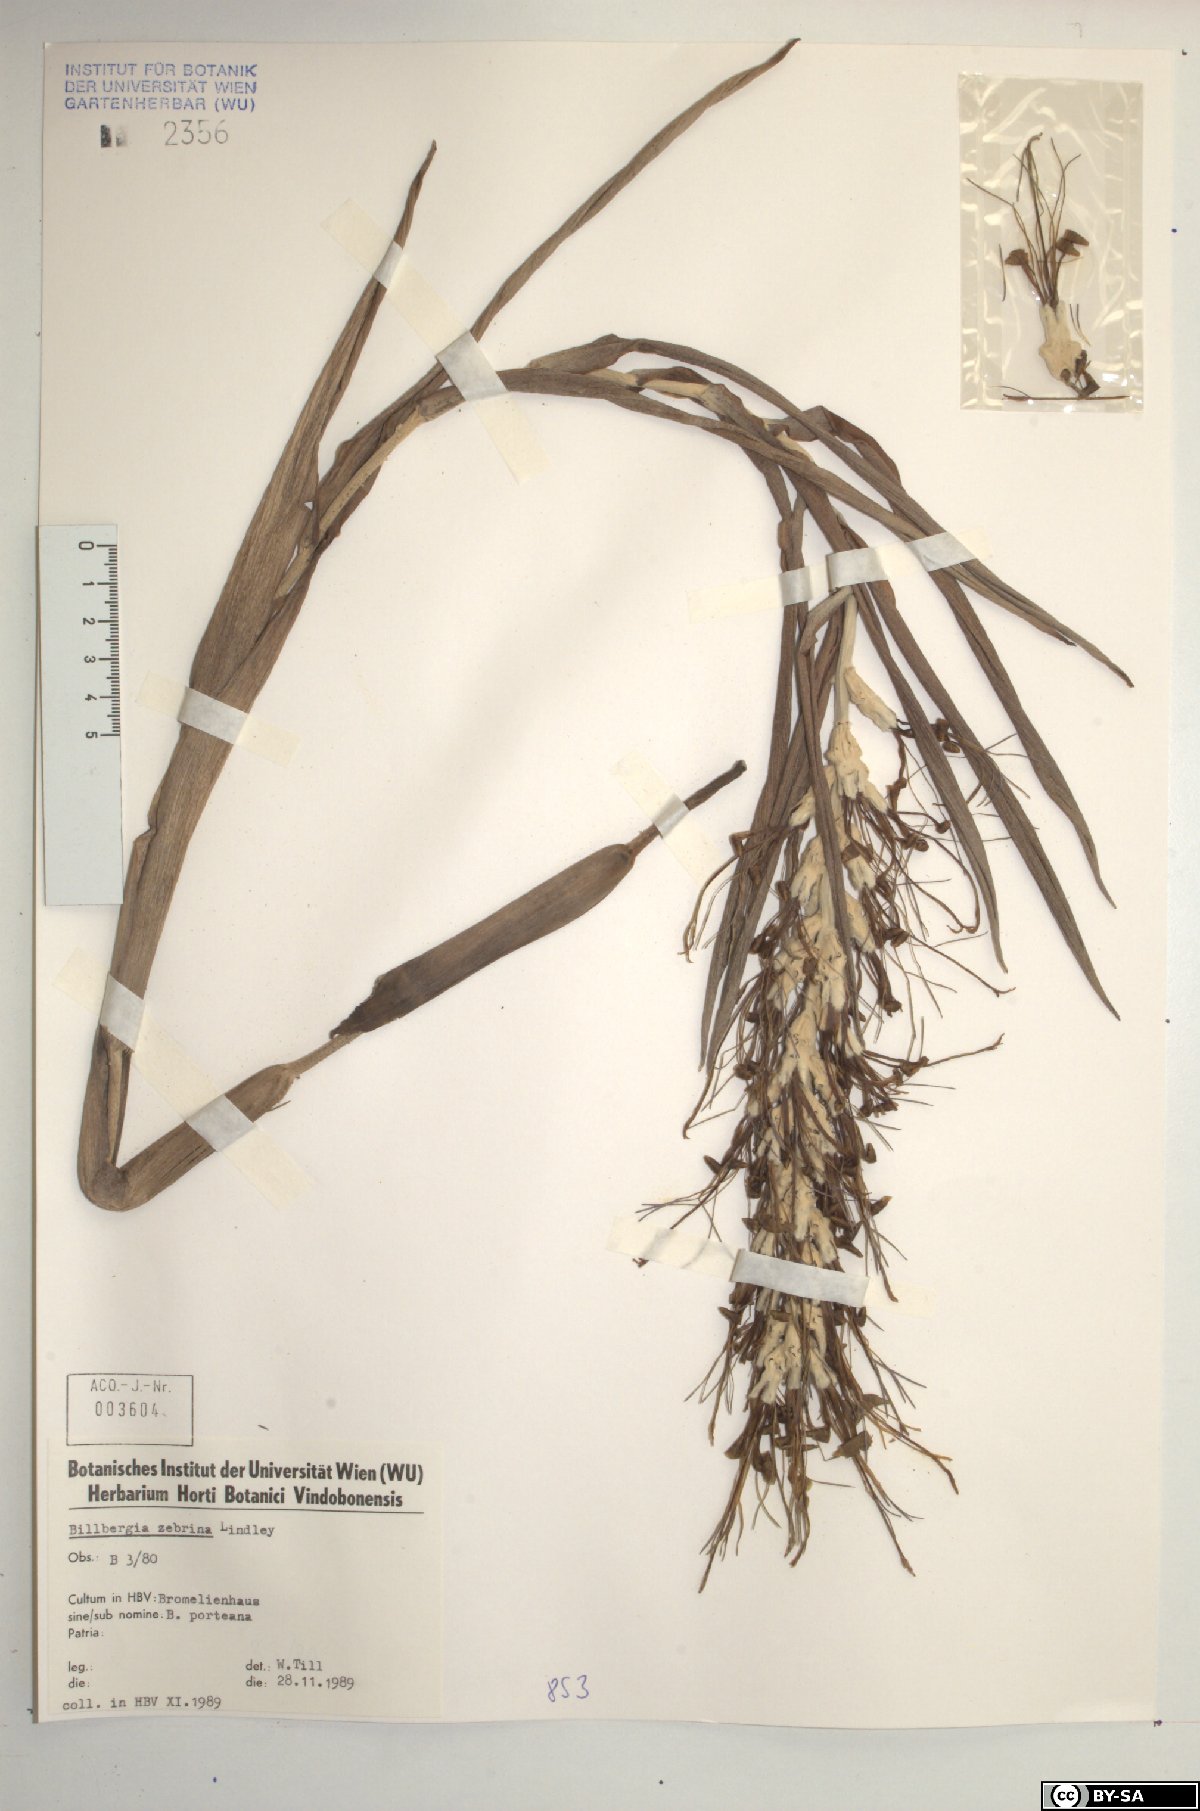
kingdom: Plantae
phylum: Tracheophyta
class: Liliopsida
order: Poales
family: Bromeliaceae
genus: Billbergia
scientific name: Billbergia zebrina
